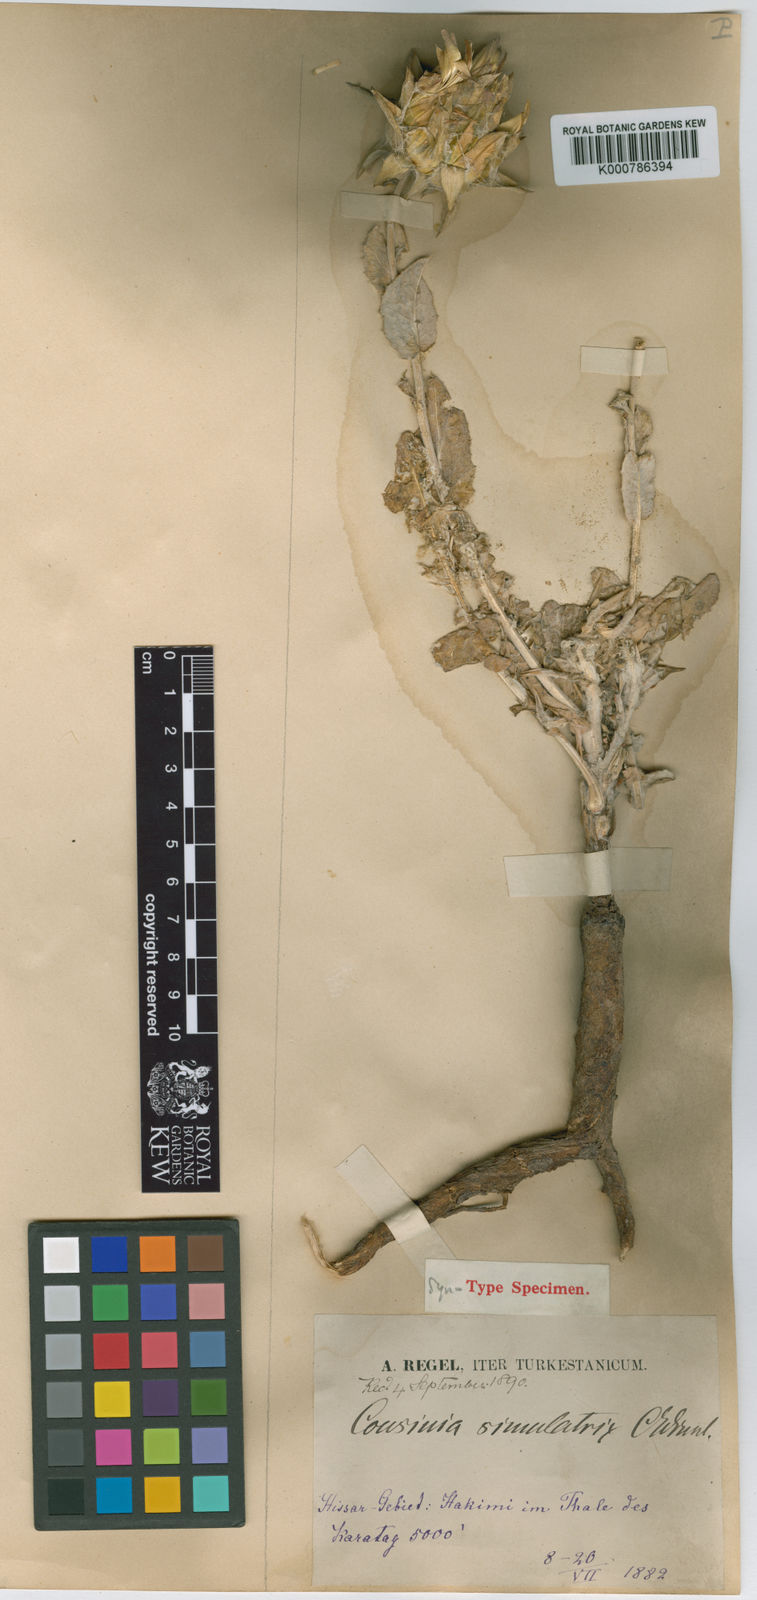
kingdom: Plantae
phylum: Tracheophyta
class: Magnoliopsida
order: Asterales
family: Asteraceae
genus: Cousinia
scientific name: Cousinia simulatrix
